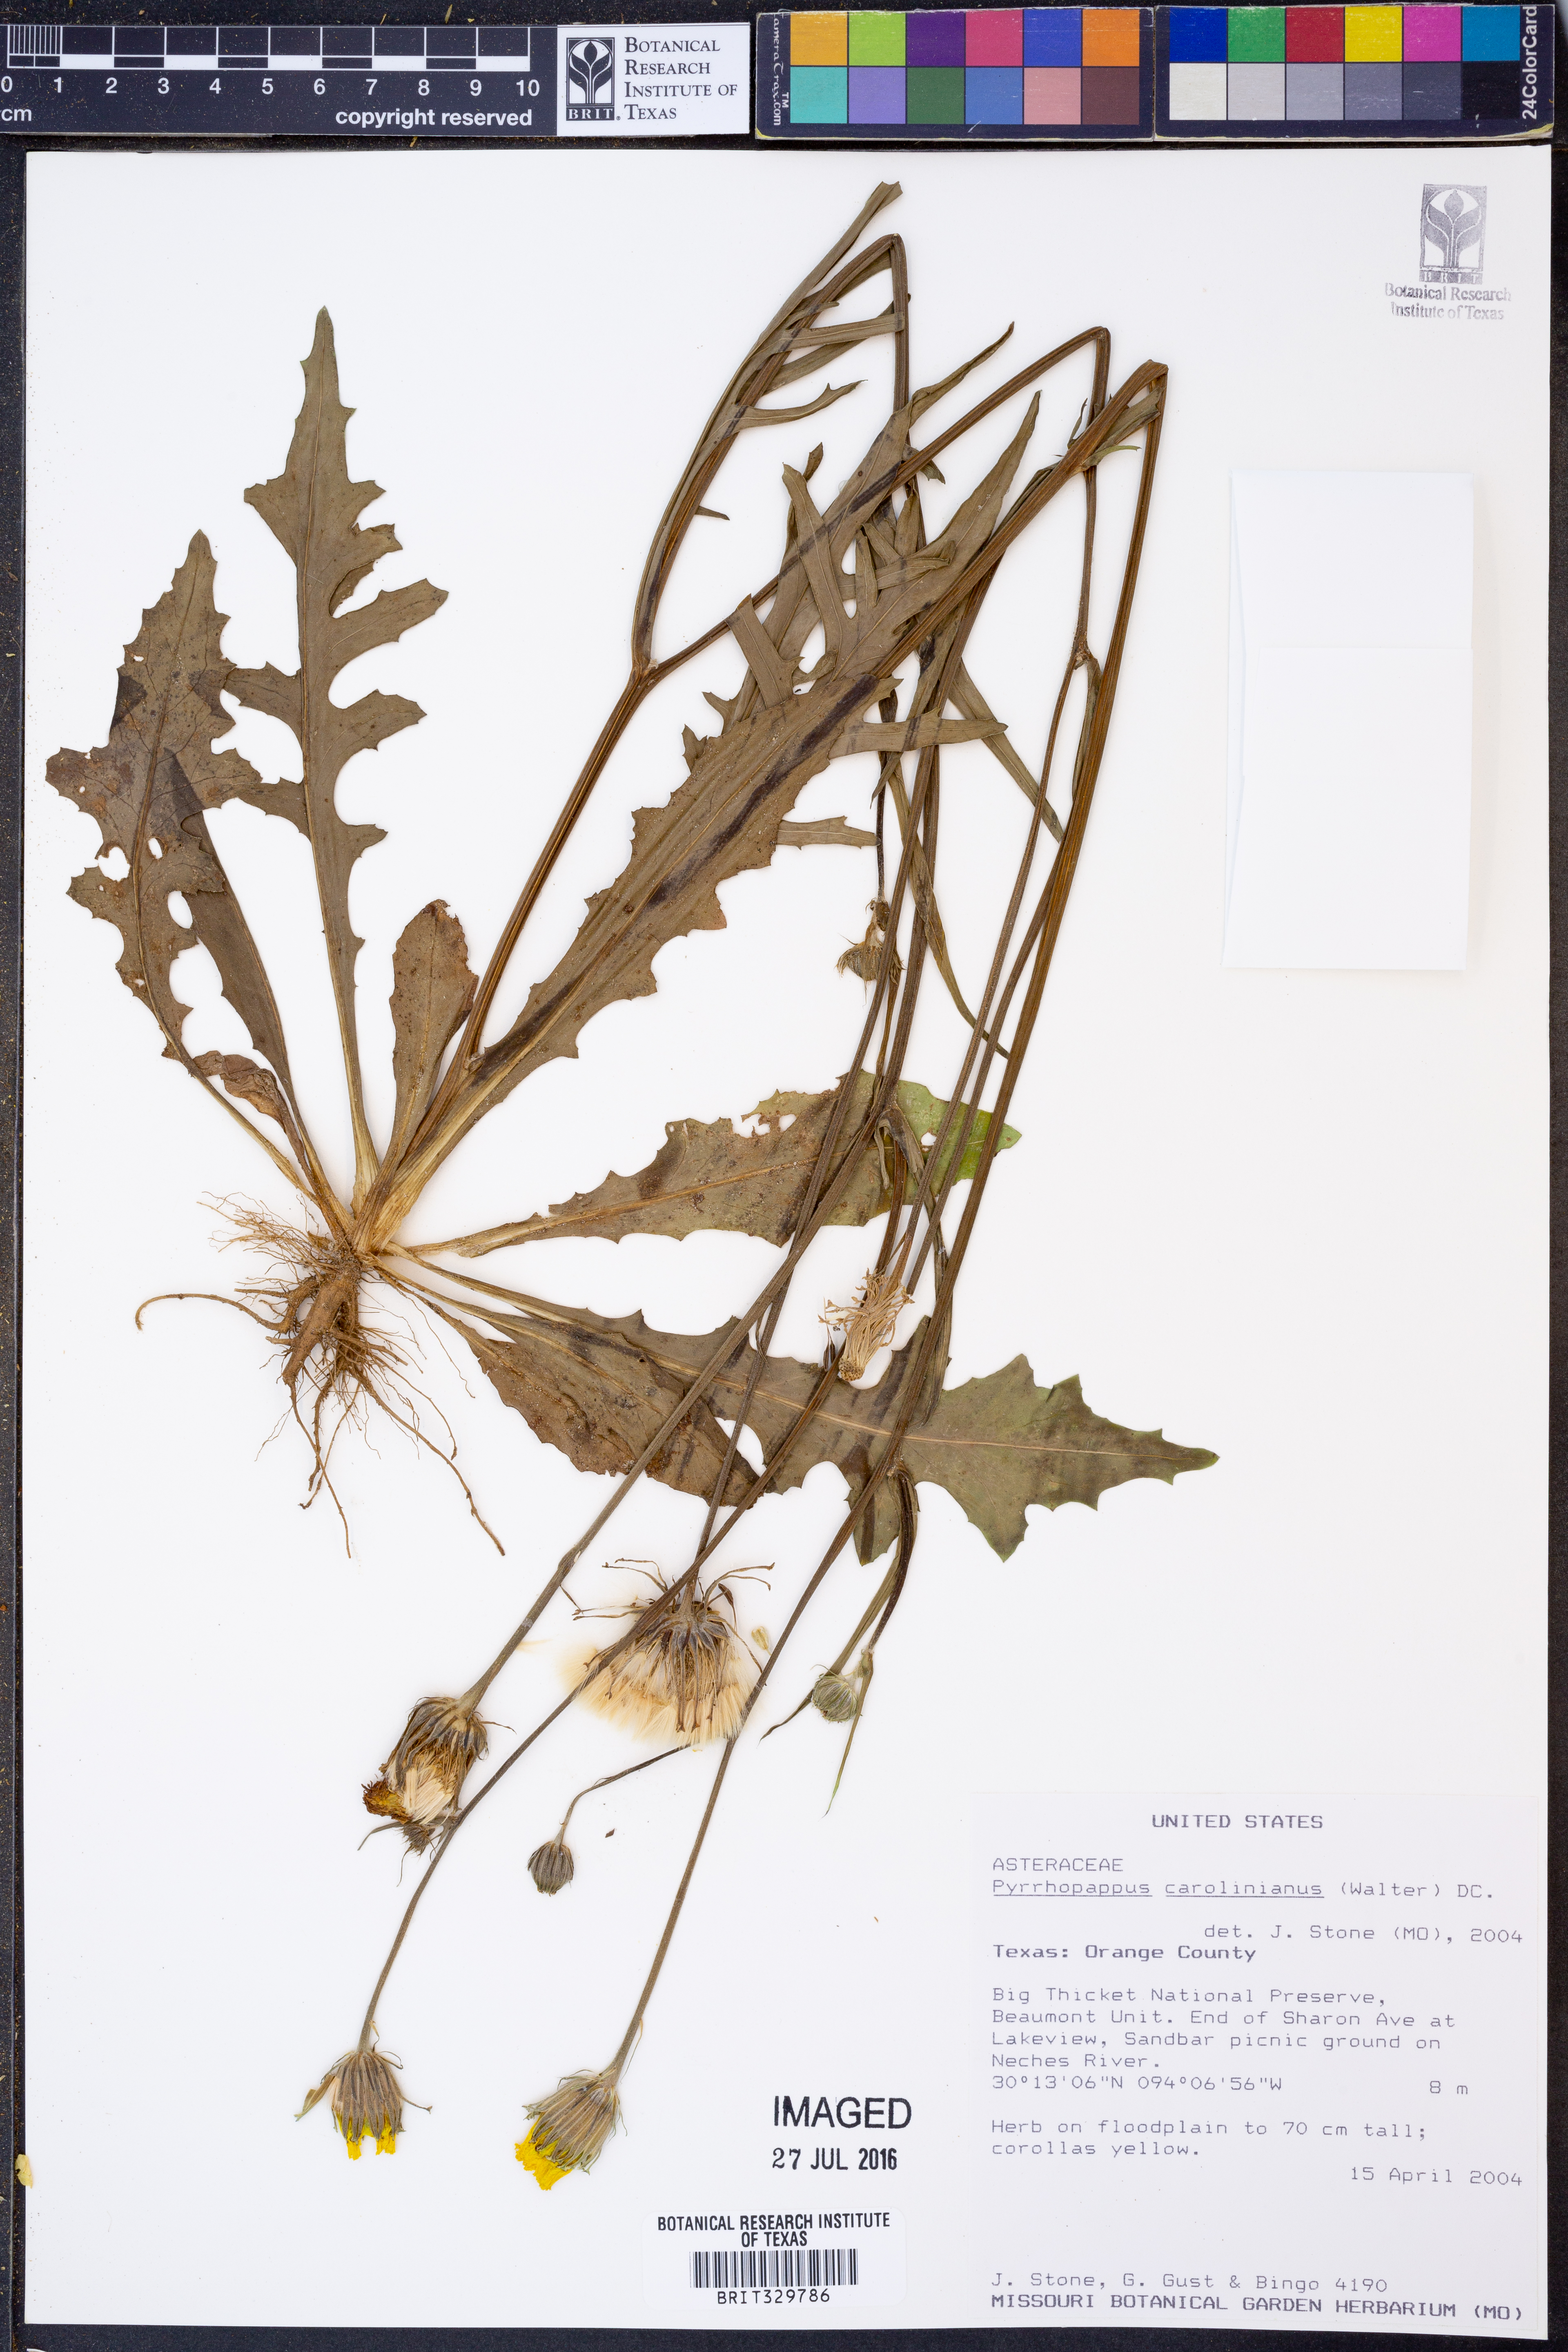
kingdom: Plantae
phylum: Tracheophyta
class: Magnoliopsida
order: Asterales
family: Asteraceae
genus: Pyrrhopappus
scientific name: Pyrrhopappus carolinianus
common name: Carolina desert-chicory
